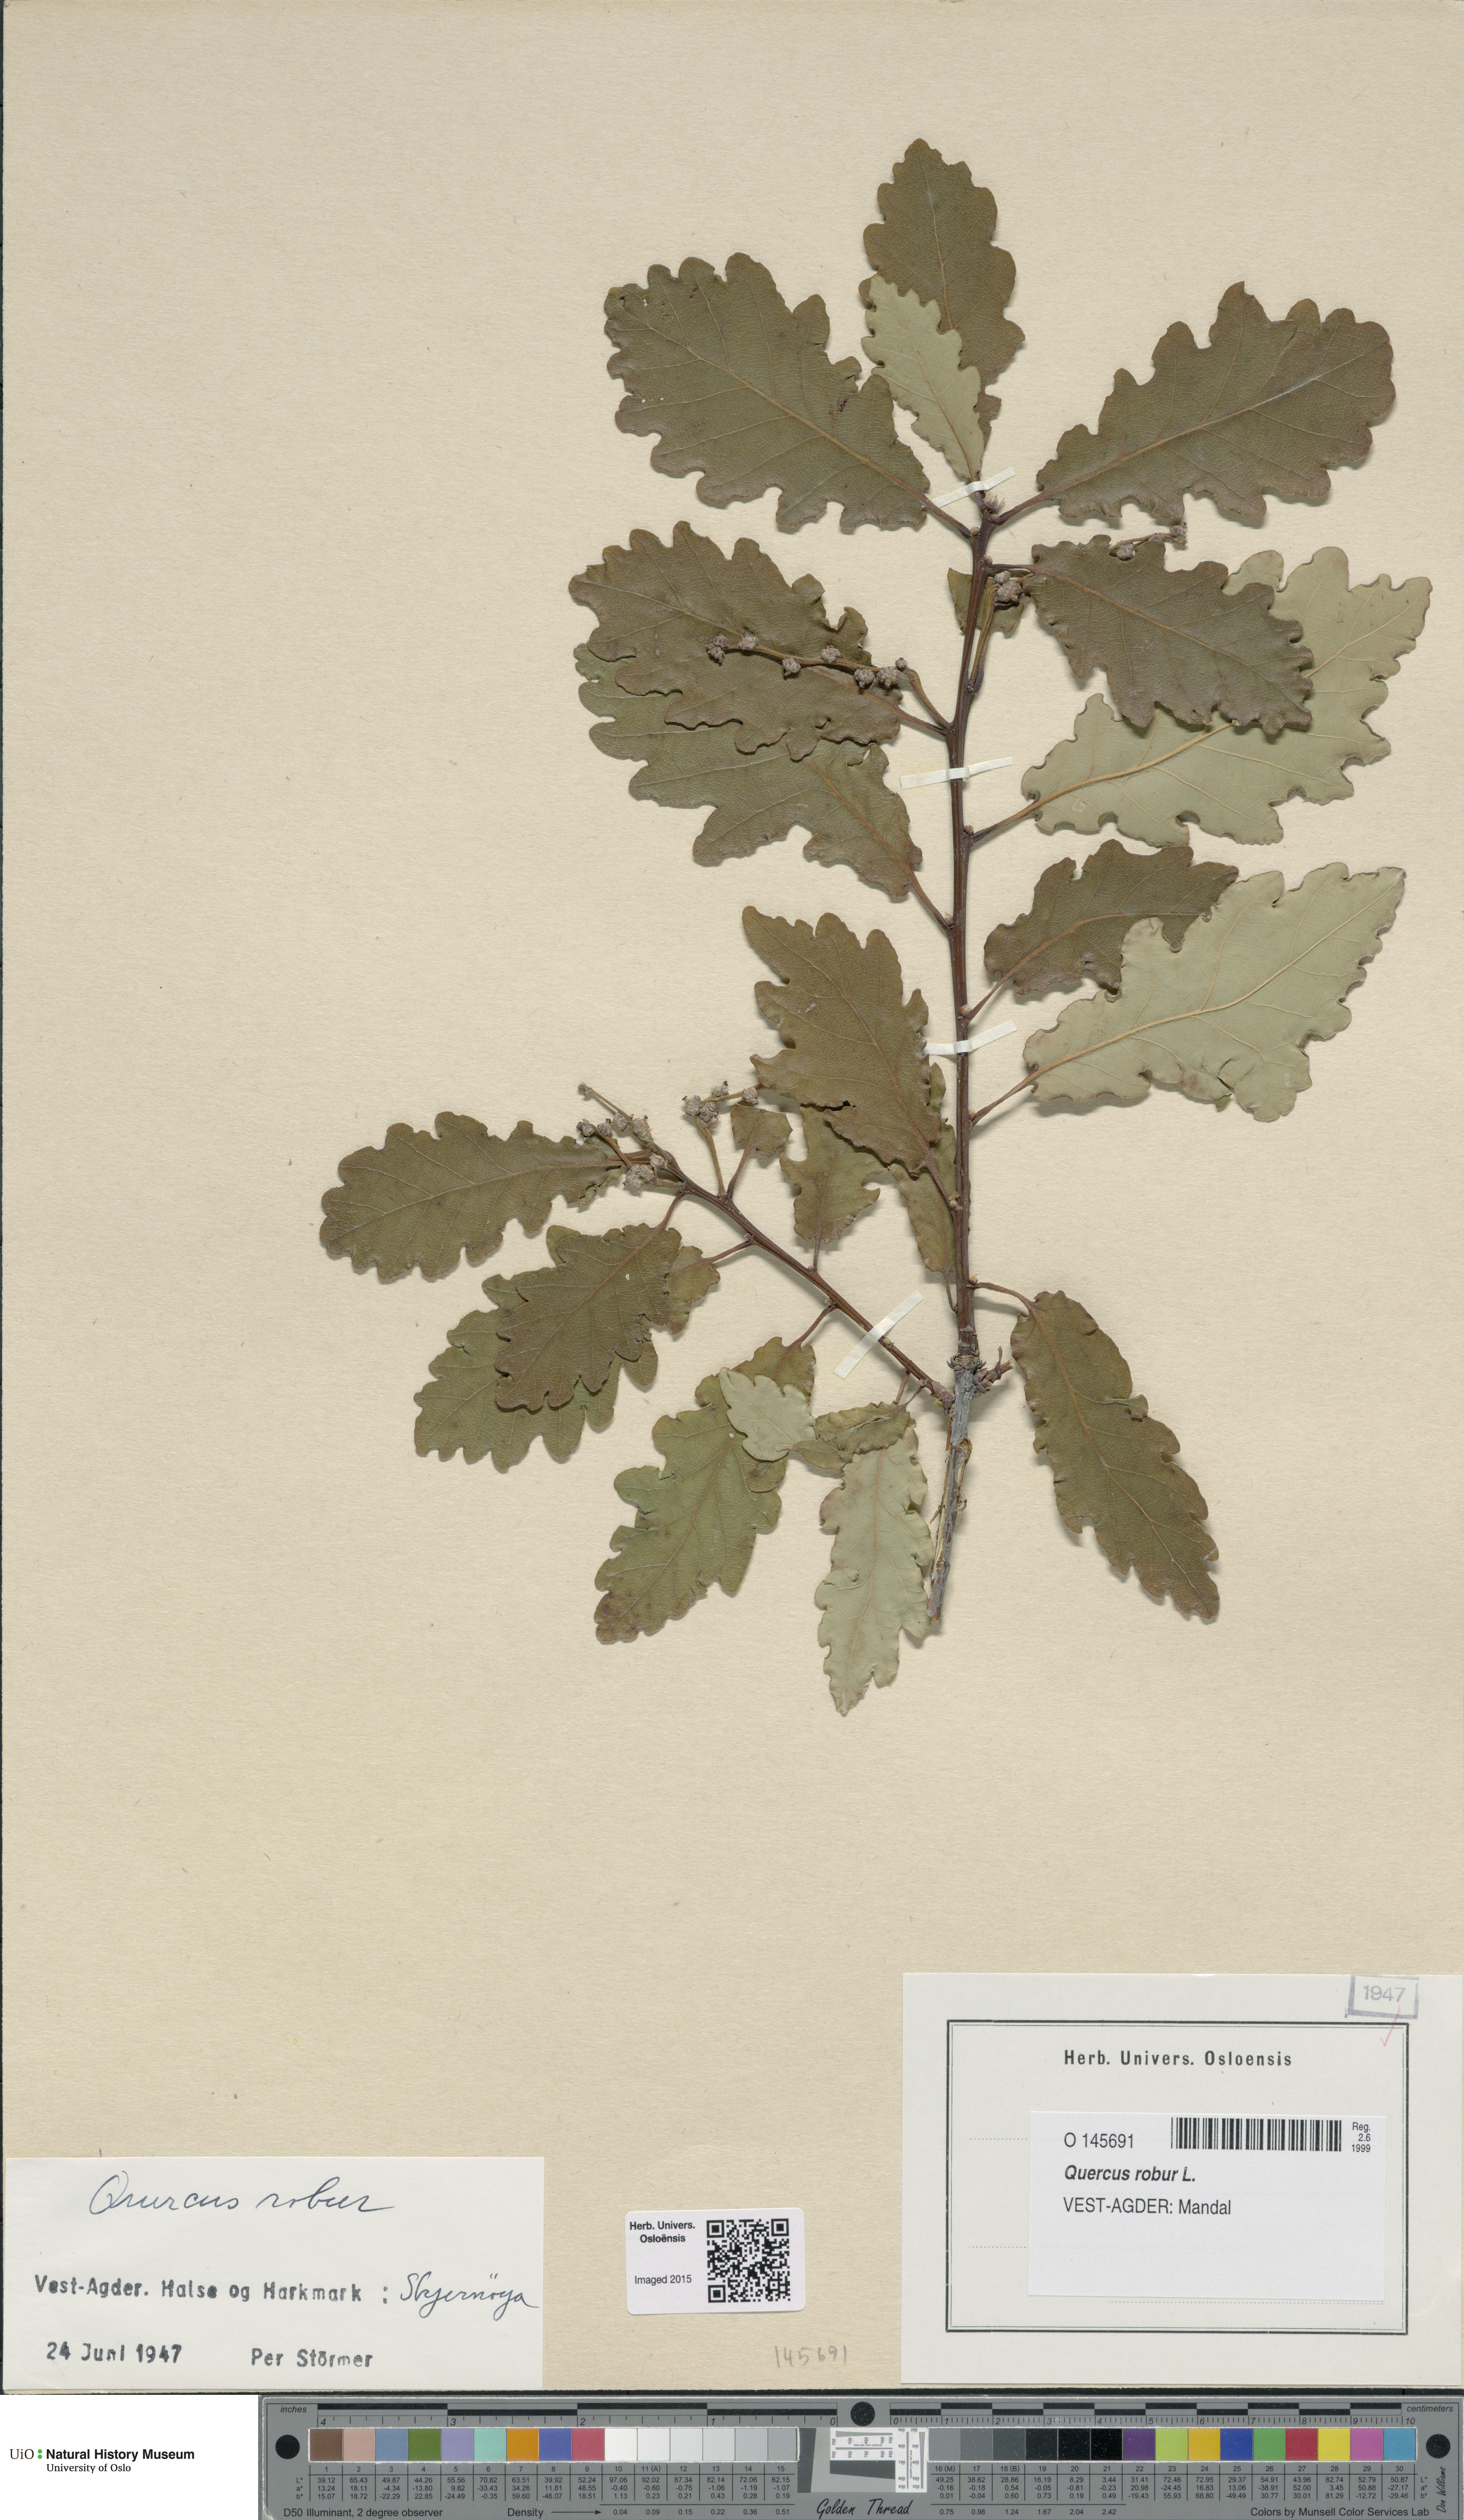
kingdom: Plantae
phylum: Tracheophyta
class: Magnoliopsida
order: Fagales
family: Fagaceae
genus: Quercus
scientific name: Quercus robur
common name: Pedunculate oak
